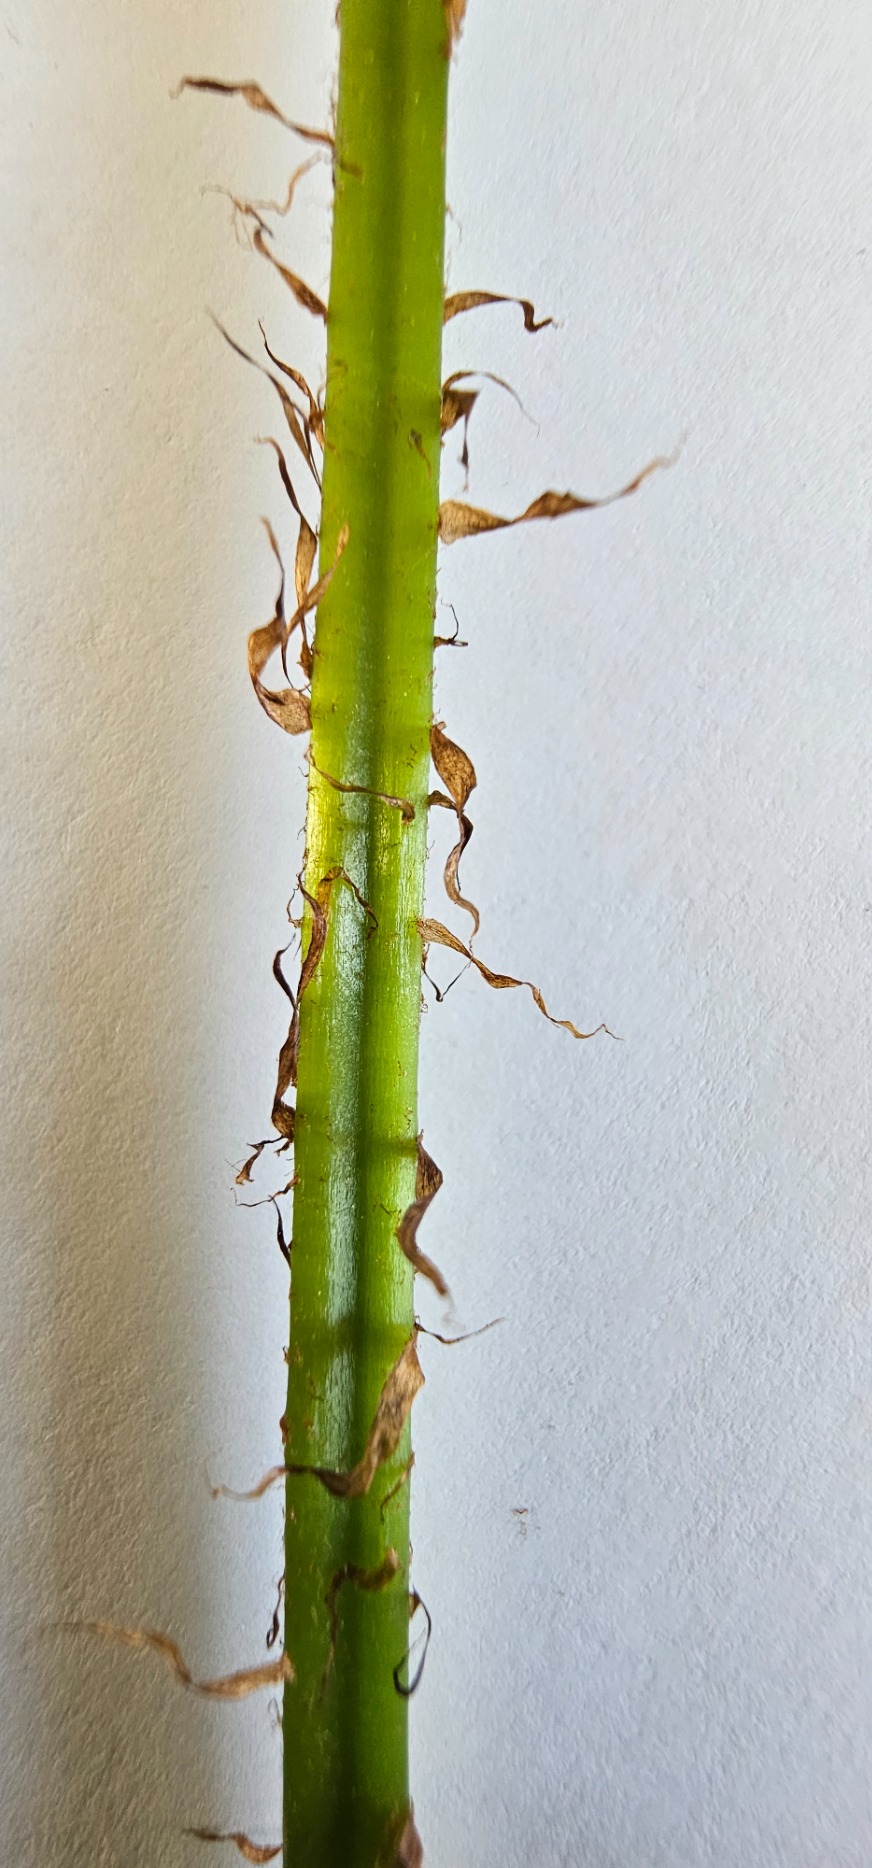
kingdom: Plantae
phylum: Tracheophyta
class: Polypodiopsida
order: Polypodiales
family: Dryopteridaceae
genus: Dryopteris
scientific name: Dryopteris filix-mas
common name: Almindelig mangeløv
